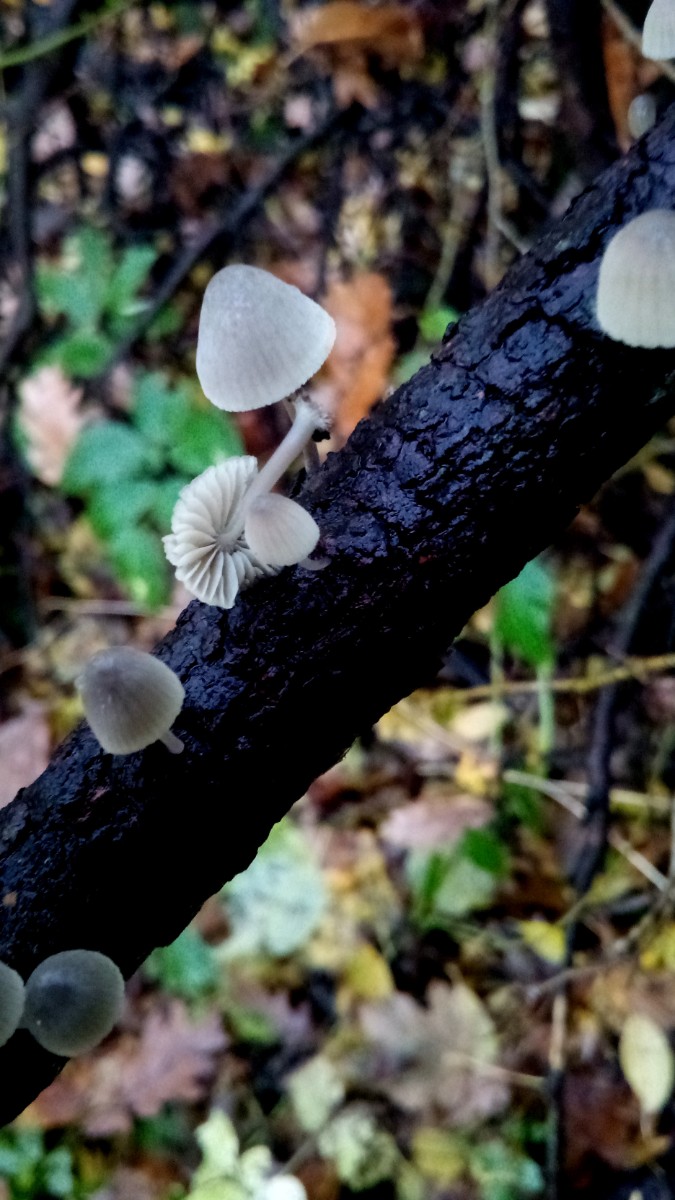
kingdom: Fungi
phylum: Basidiomycota
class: Agaricomycetes
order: Agaricales
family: Mycenaceae
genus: Mycena
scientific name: Mycena arcangeliana
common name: oliven-huesvamp
